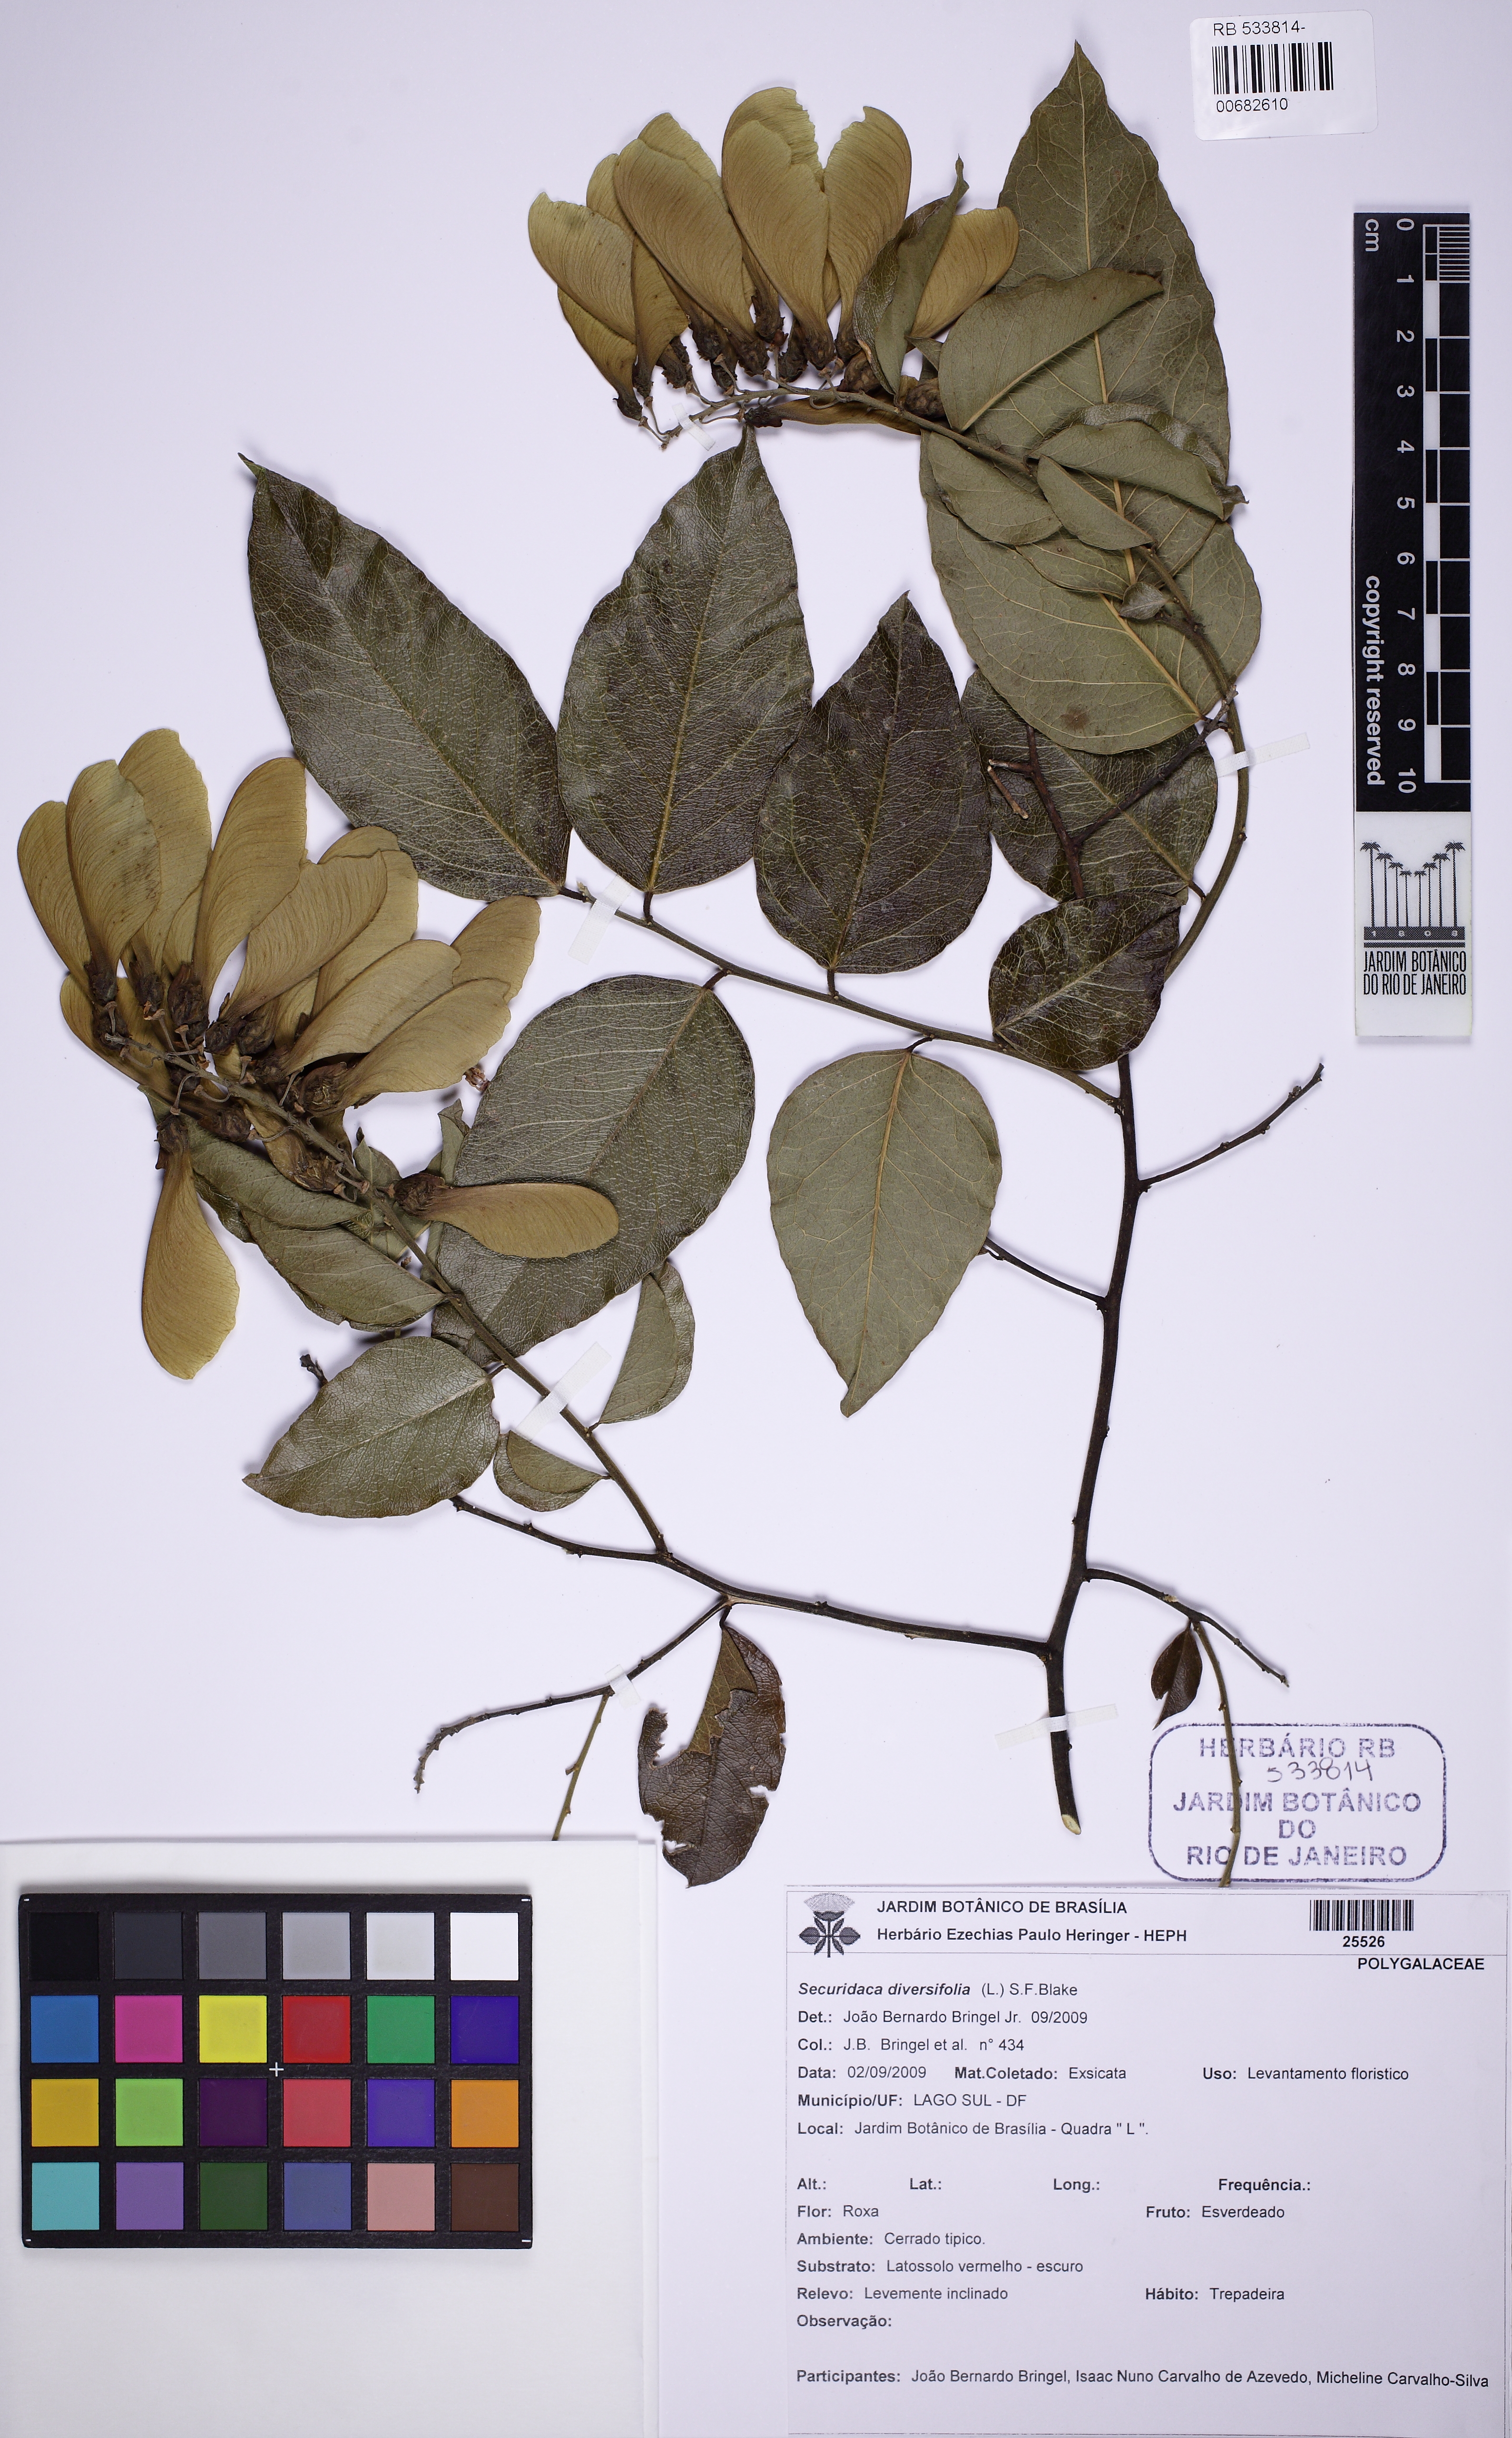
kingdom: Plantae
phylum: Tracheophyta
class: Magnoliopsida
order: Fabales
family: Polygalaceae
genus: Securidaca
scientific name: Securidaca diversifolia
